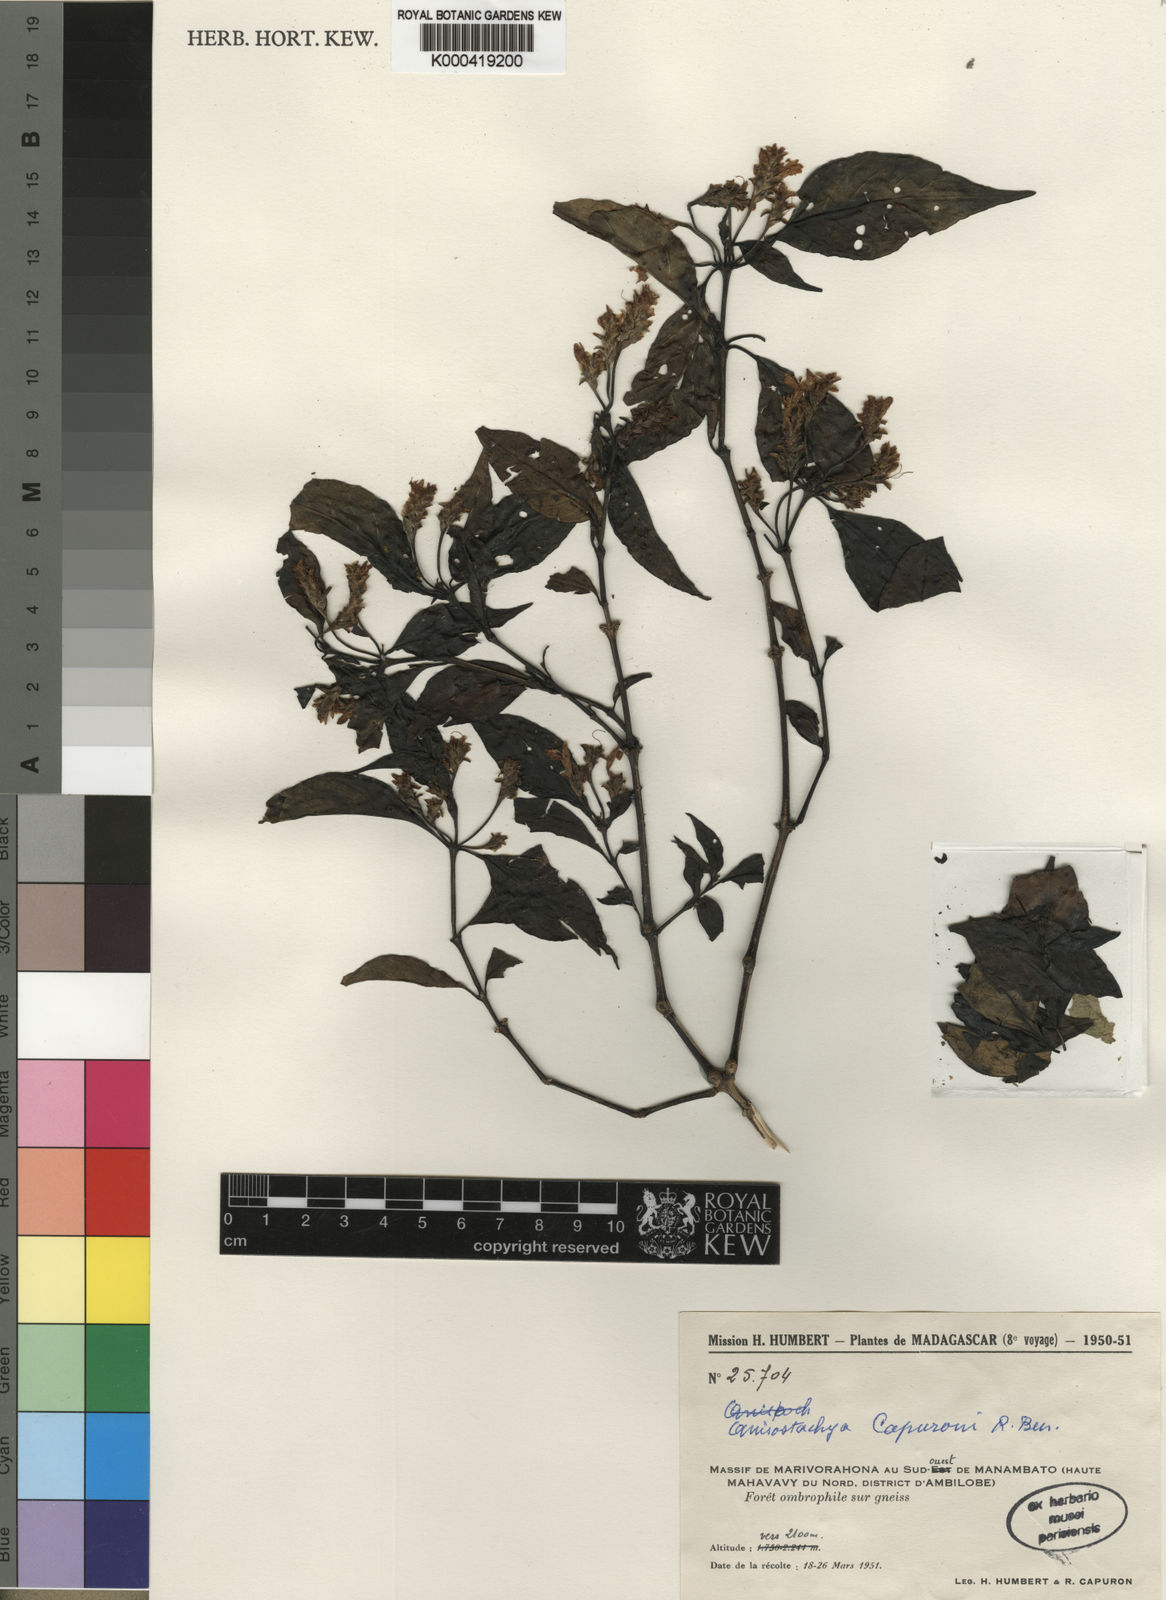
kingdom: Plantae
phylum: Tracheophyta
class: Magnoliopsida
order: Lamiales
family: Acanthaceae
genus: Justicia
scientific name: Justicia
